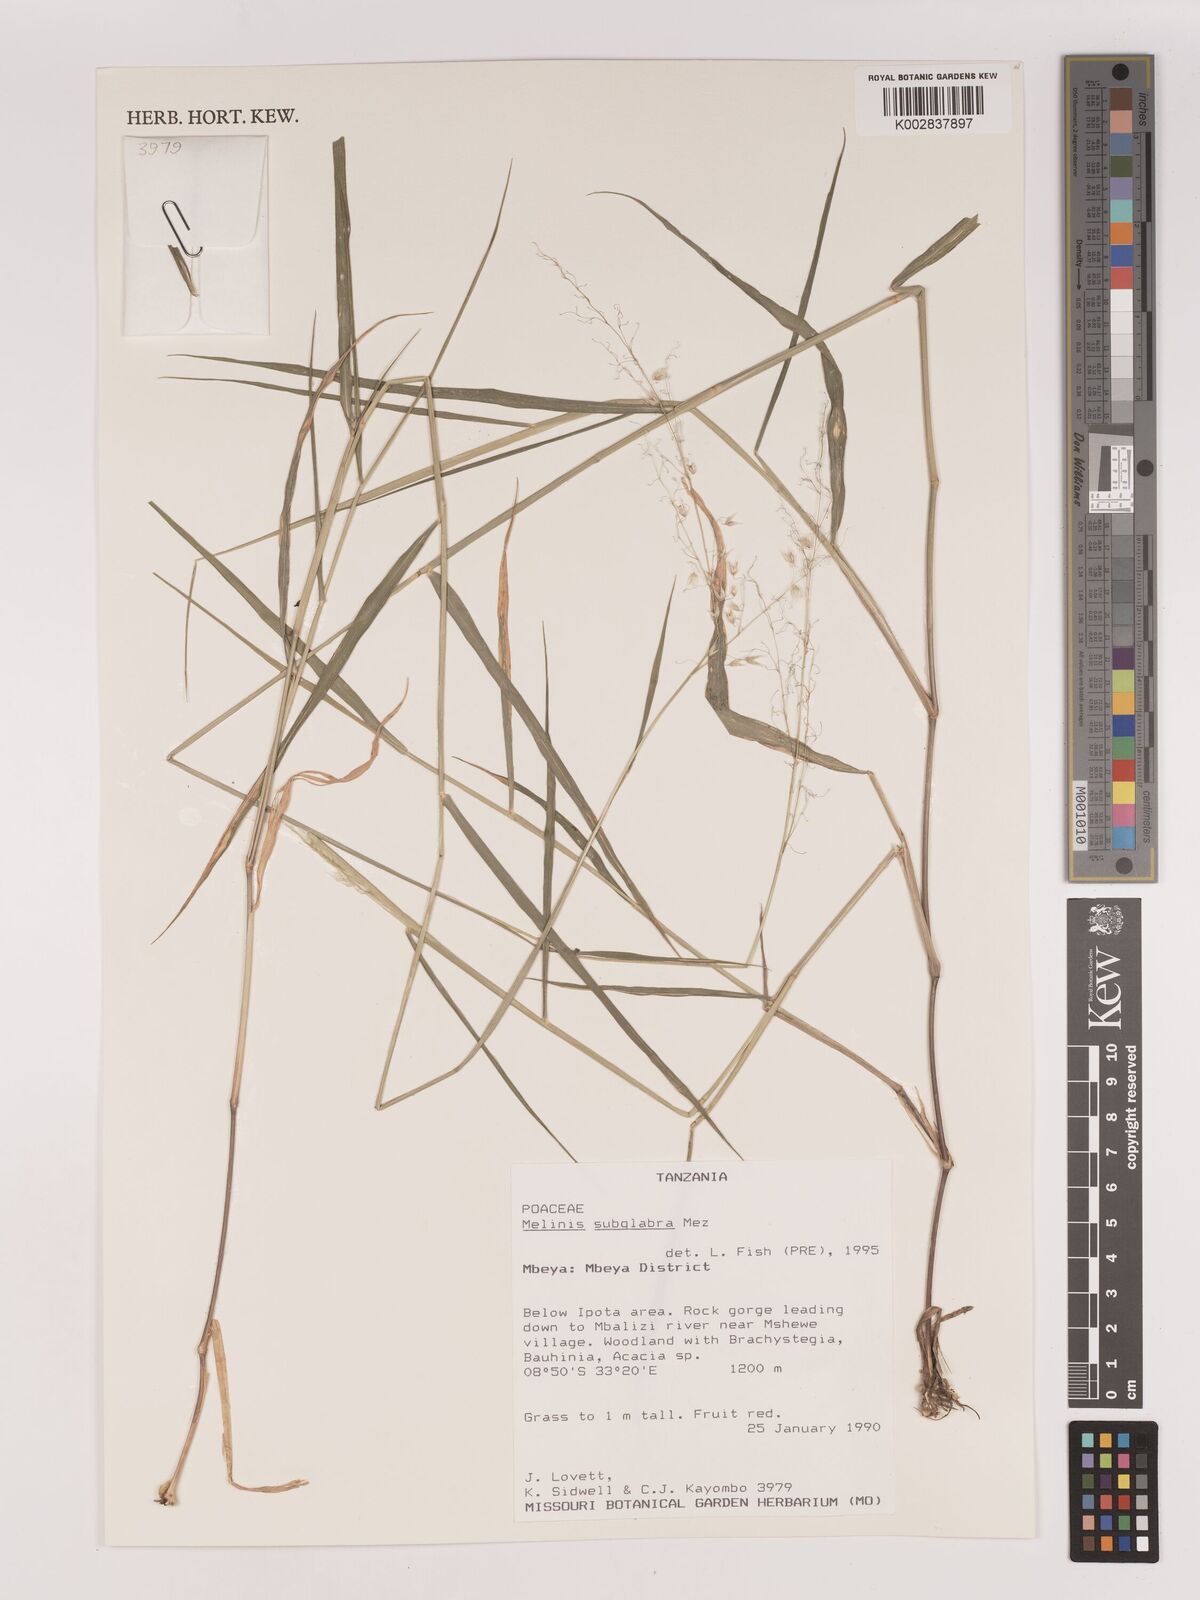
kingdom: Plantae
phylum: Tracheophyta
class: Liliopsida
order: Poales
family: Poaceae
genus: Melinis
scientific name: Melinis subglabra
